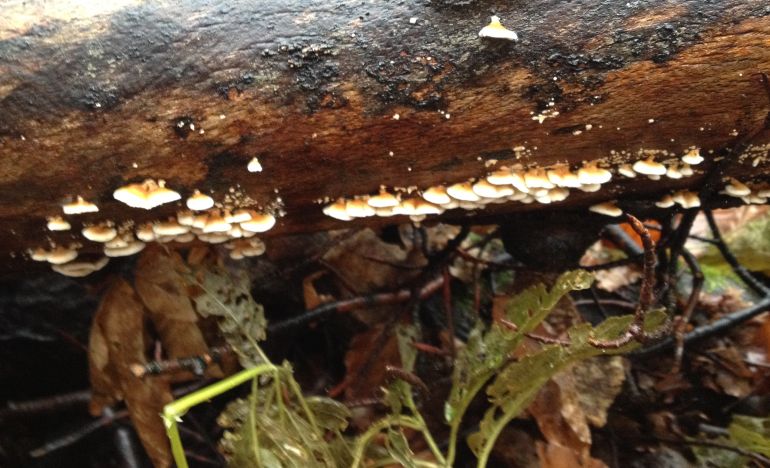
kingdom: Fungi
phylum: Basidiomycota
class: Agaricomycetes
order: Amylocorticiales
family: Amylocorticiaceae
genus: Plicaturopsis
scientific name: Plicaturopsis crispa
